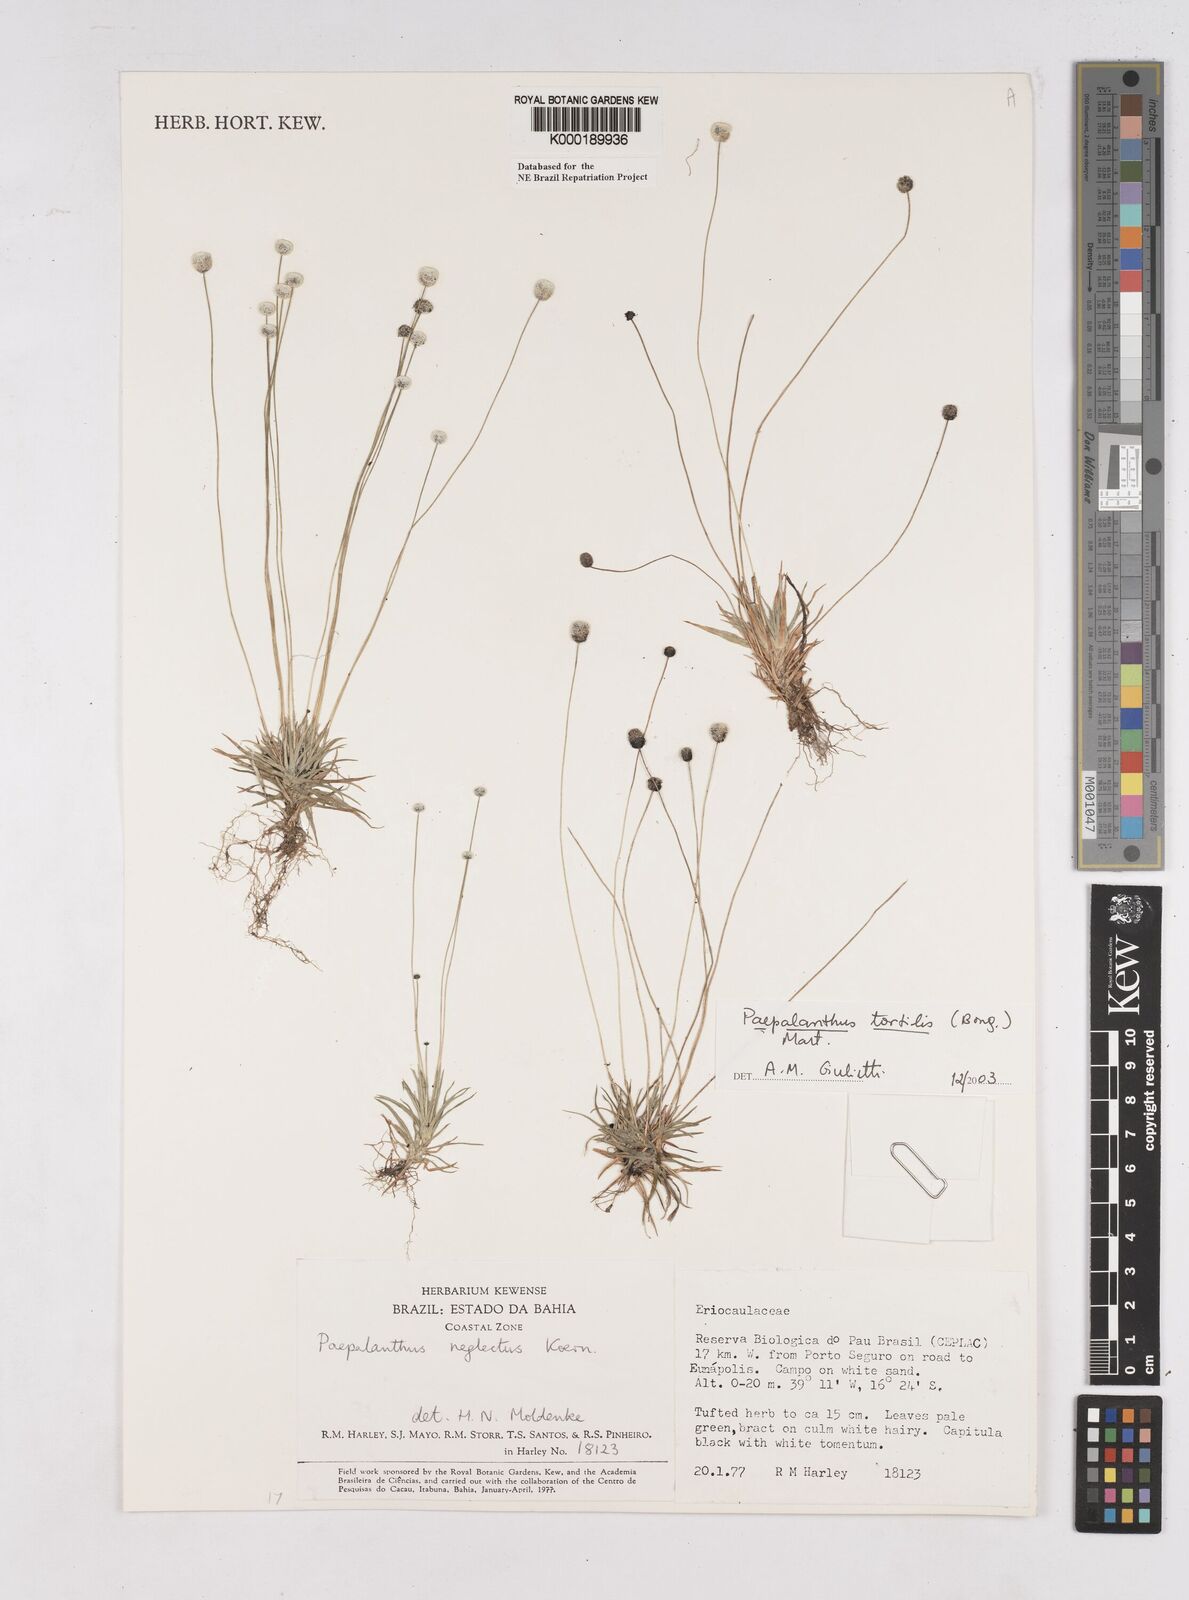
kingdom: Plantae
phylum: Tracheophyta
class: Liliopsida
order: Poales
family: Eriocaulaceae
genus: Paepalanthus
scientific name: Paepalanthus
